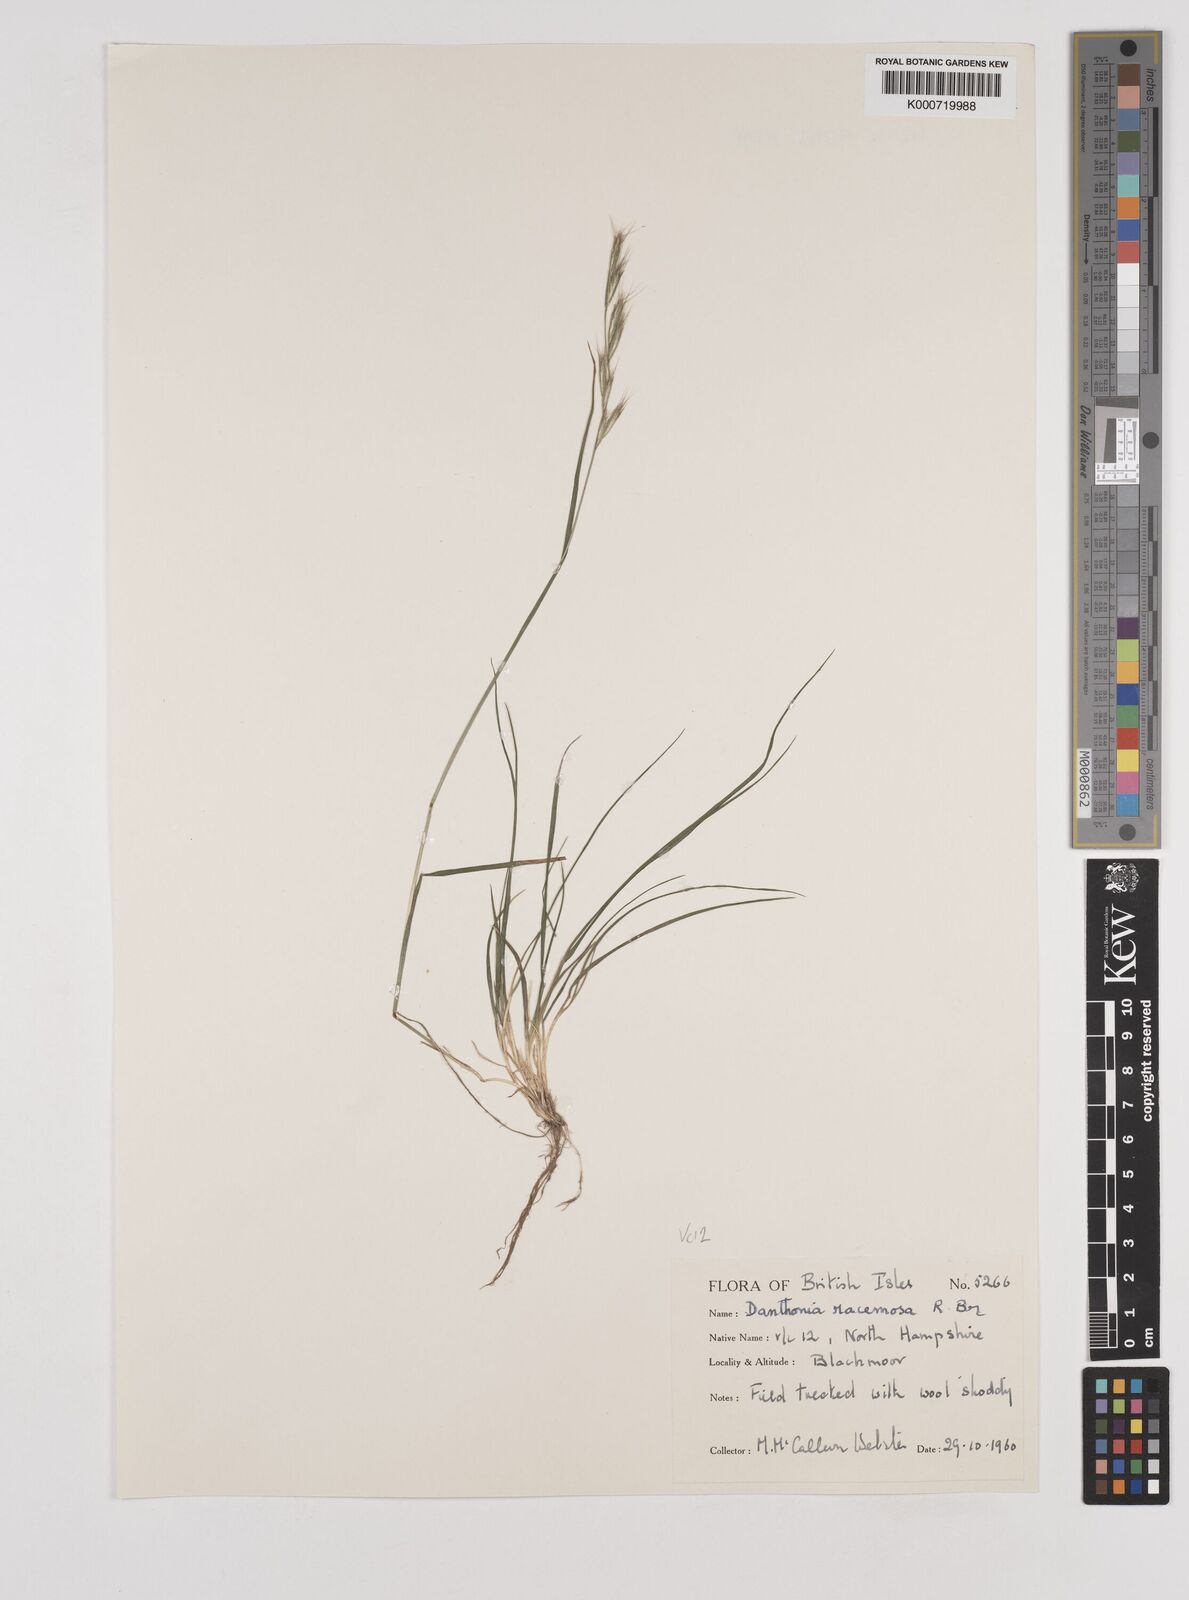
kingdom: Plantae
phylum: Tracheophyta
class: Liliopsida
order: Poales
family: Poaceae
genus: Rytidosperma
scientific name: Rytidosperma racemosum
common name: Wallaby-grass
